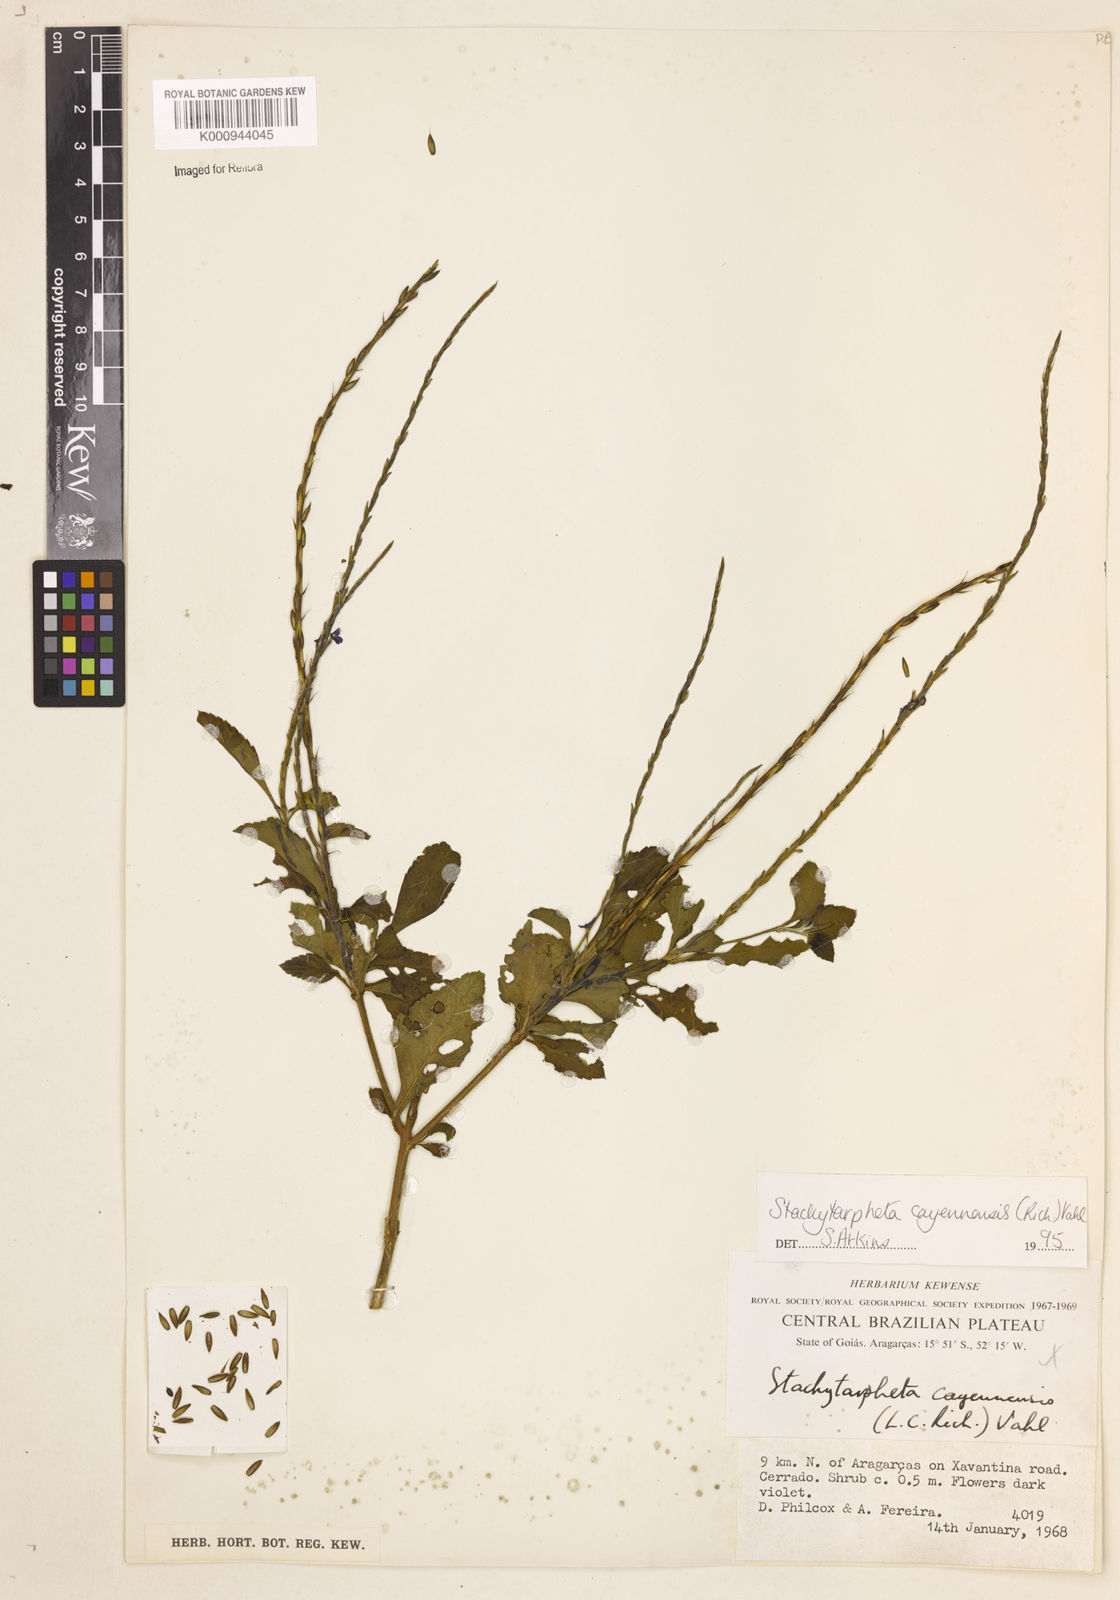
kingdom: Plantae
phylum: Tracheophyta
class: Magnoliopsida
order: Lamiales
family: Verbenaceae
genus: Aloysia
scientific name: Aloysia
